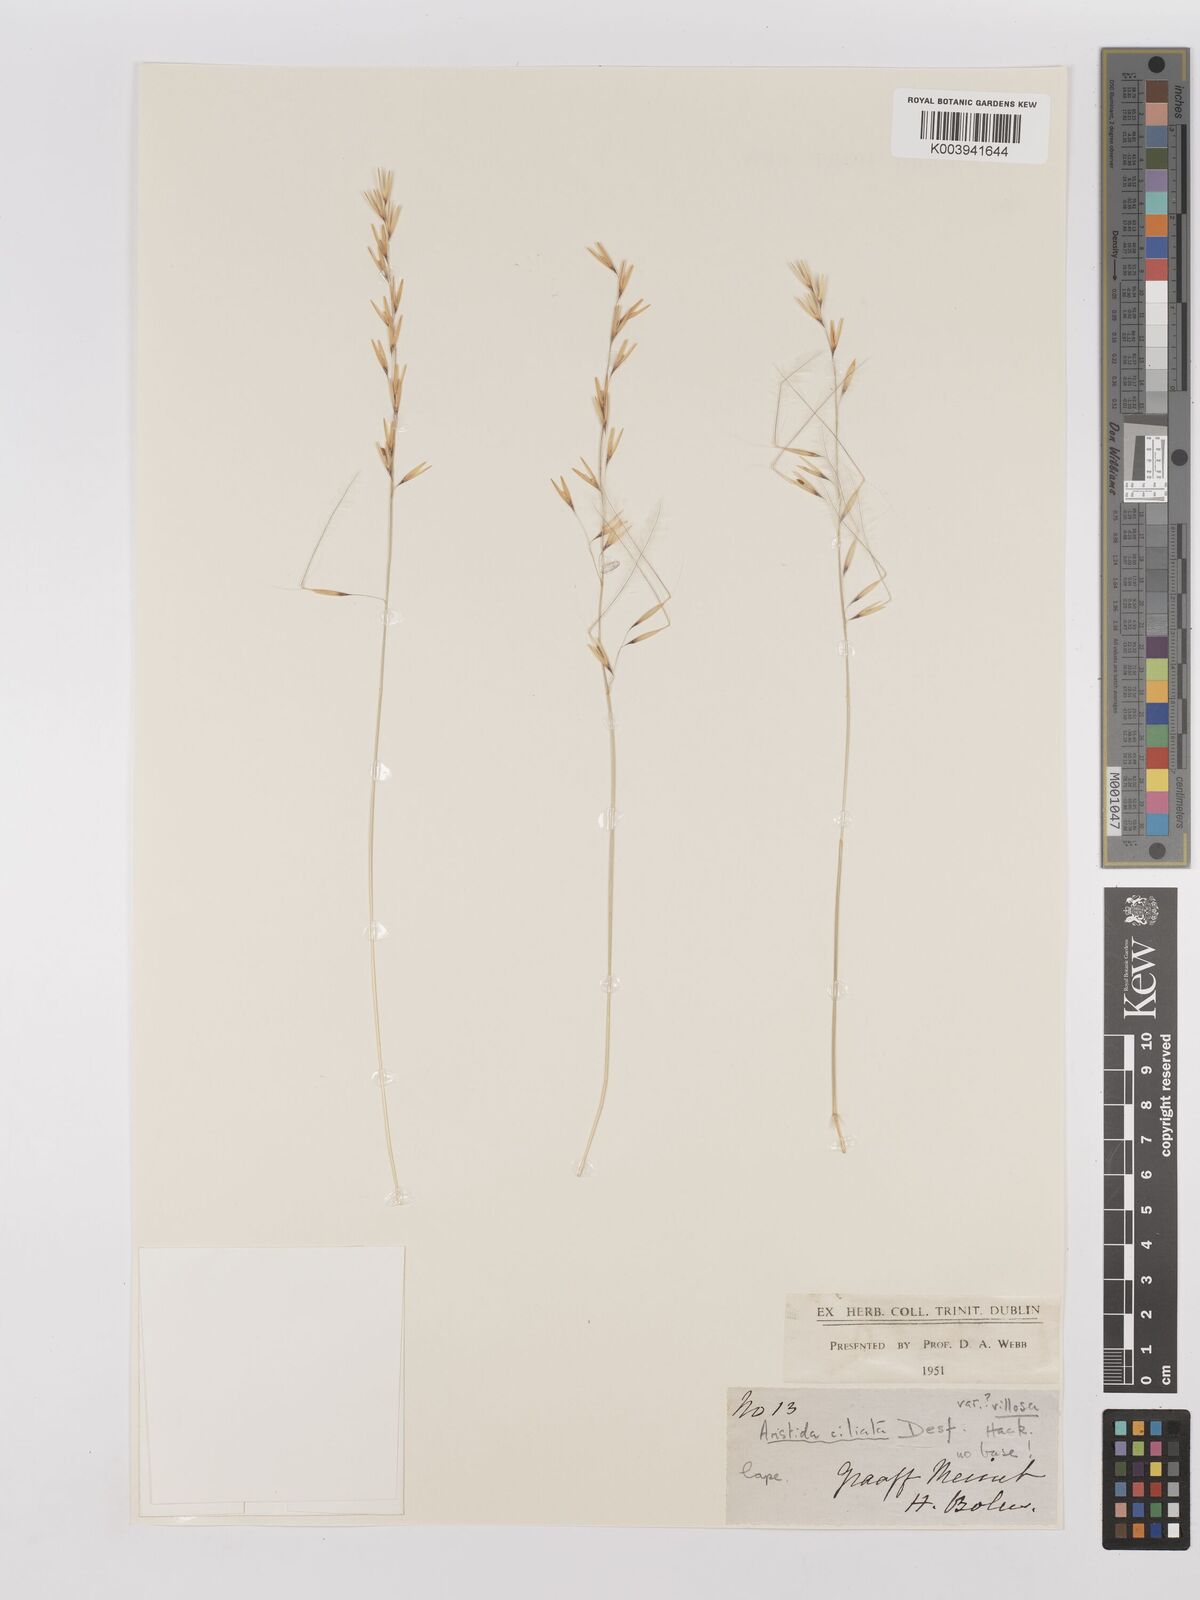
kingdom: Plantae
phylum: Tracheophyta
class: Liliopsida
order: Poales
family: Poaceae
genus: Stipagrostis
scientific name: Stipagrostis ciliata
